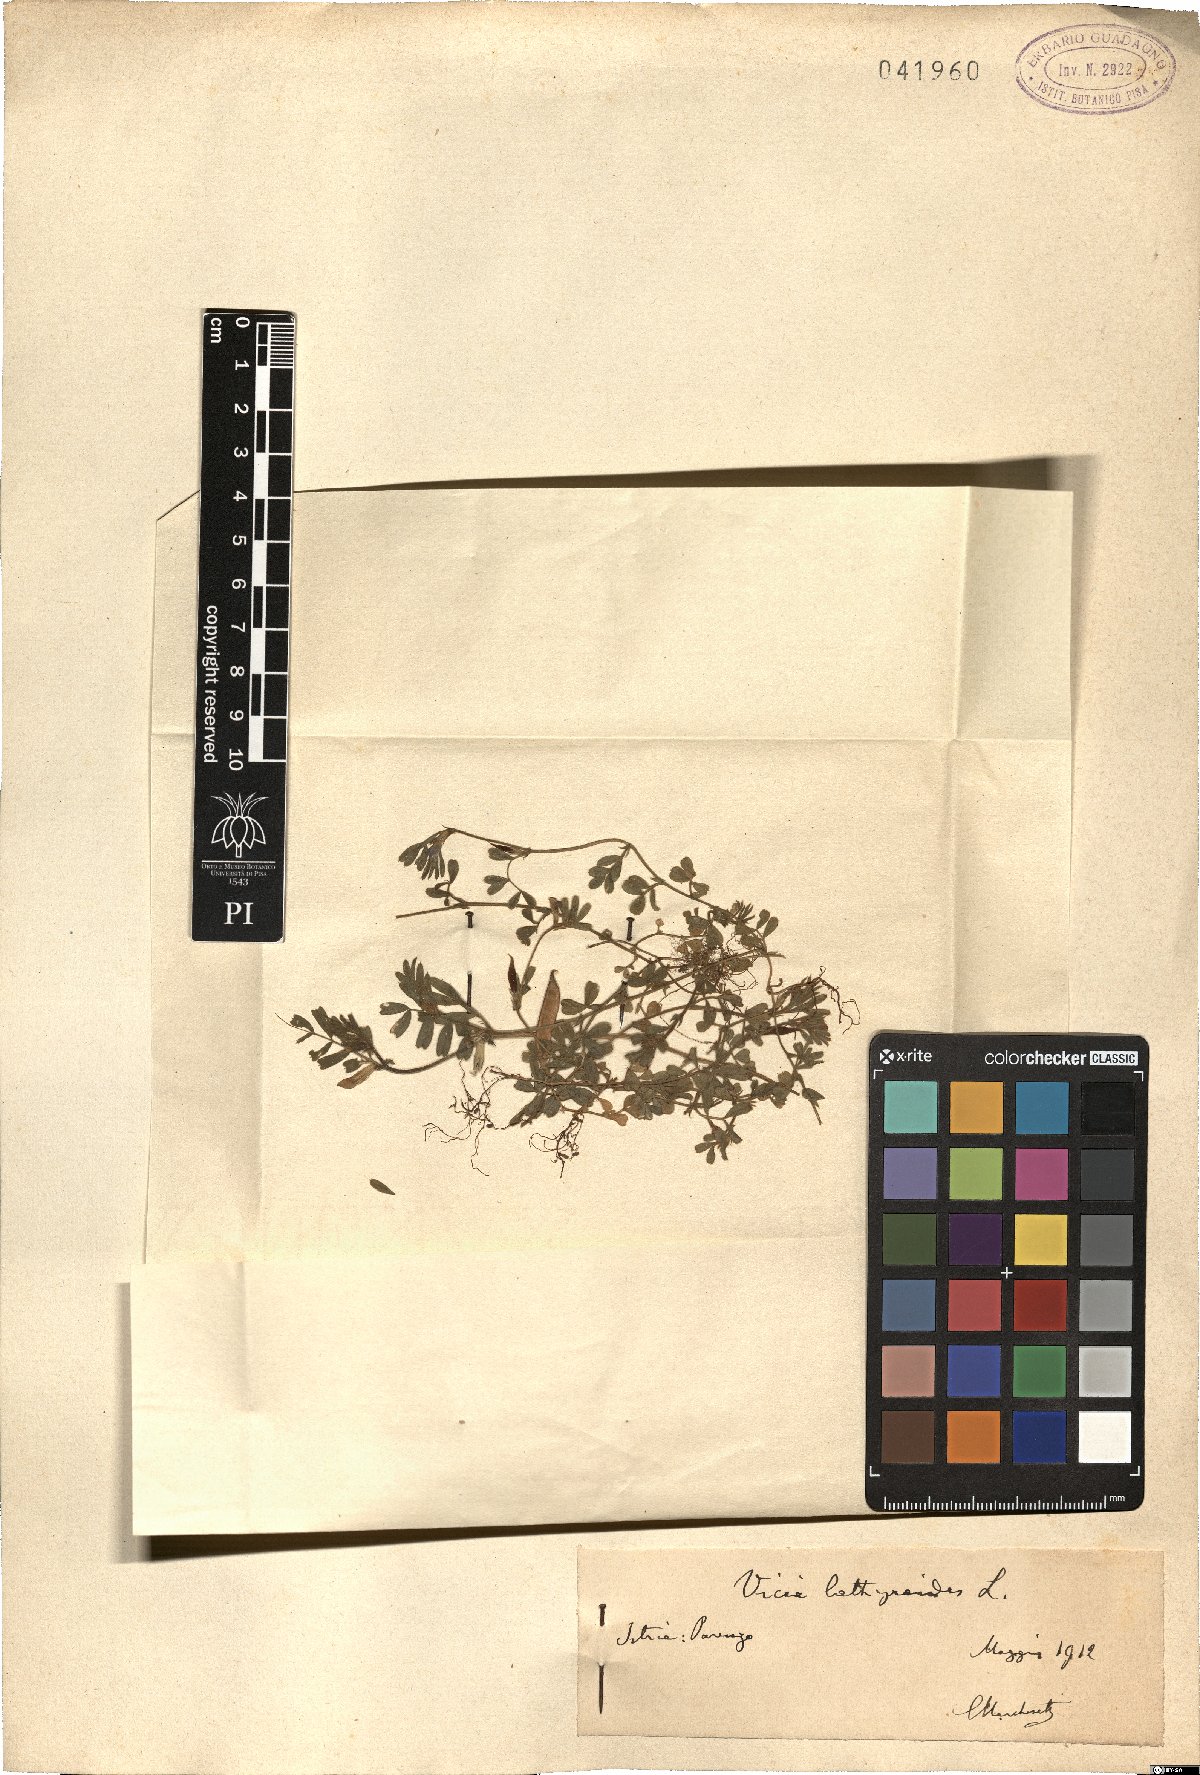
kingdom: Plantae
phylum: Tracheophyta
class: Magnoliopsida
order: Fabales
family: Fabaceae
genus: Vicia
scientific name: Vicia lathyroides
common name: Spring vetch
